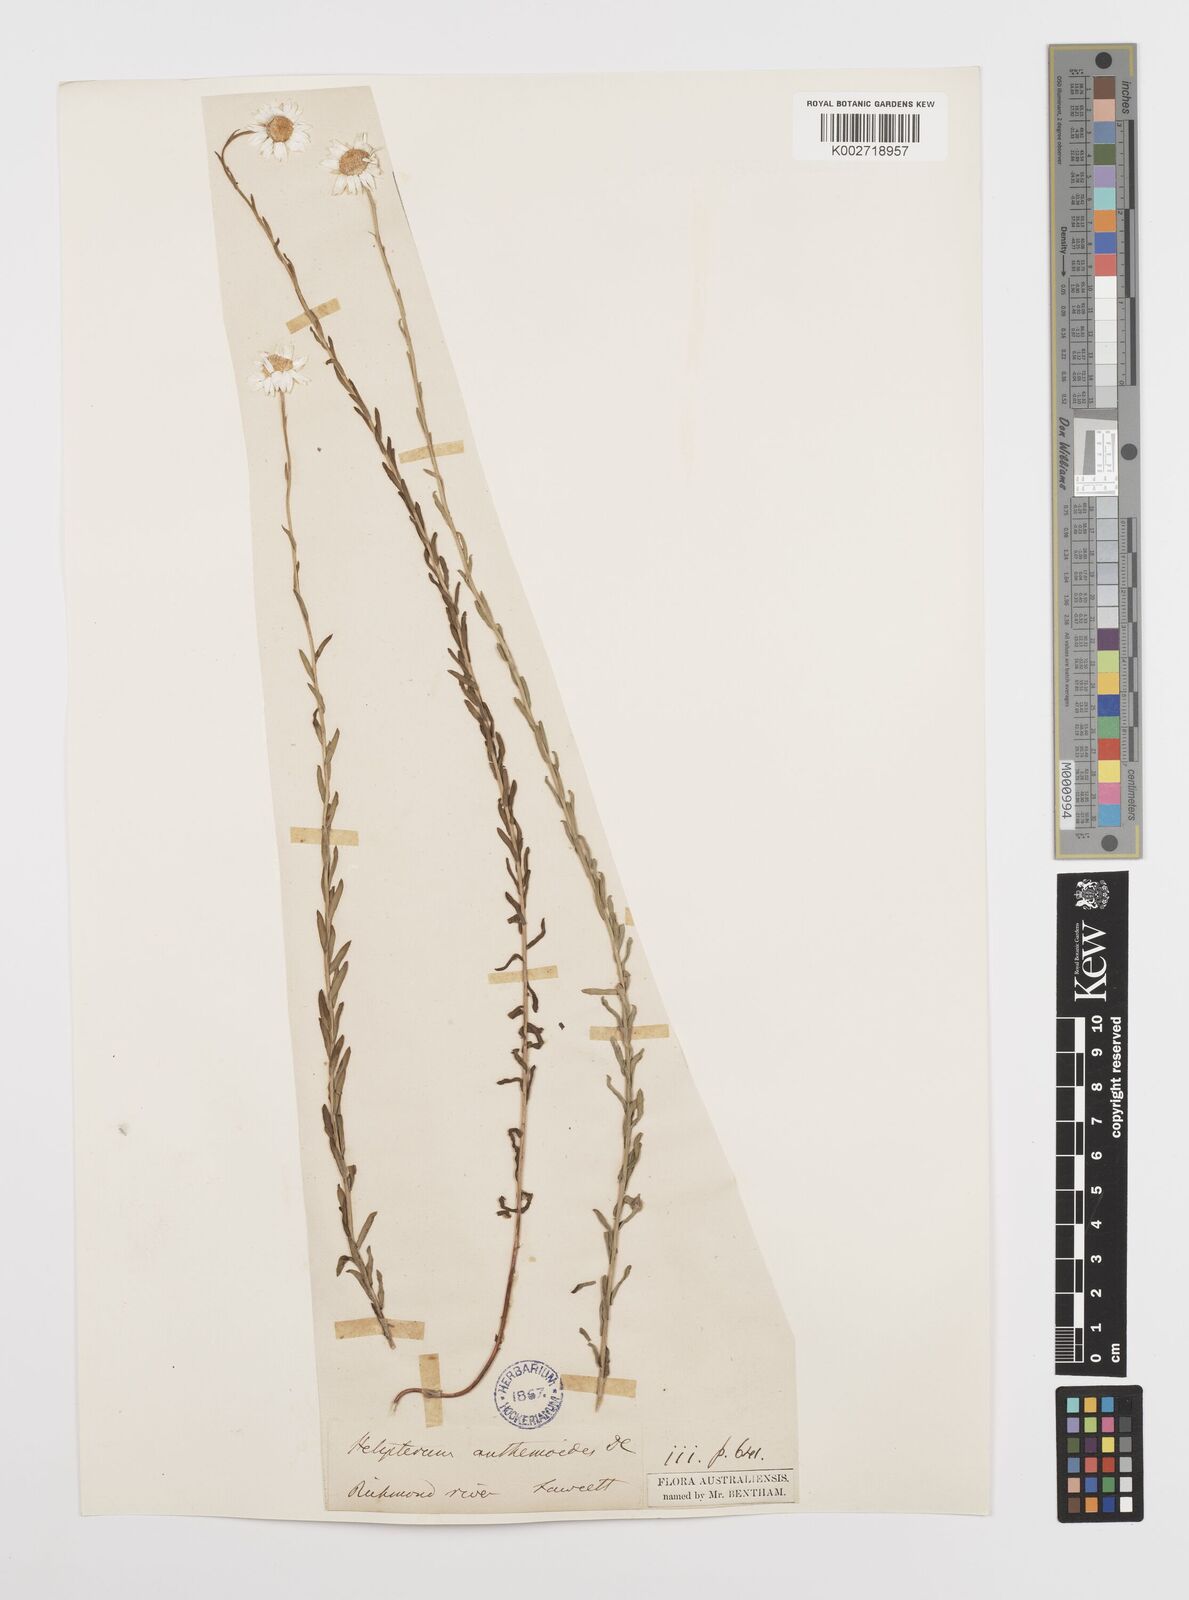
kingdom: Plantae
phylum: Tracheophyta
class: Magnoliopsida
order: Asterales
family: Asteraceae
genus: Rhodanthe
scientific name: Rhodanthe anthemoides
